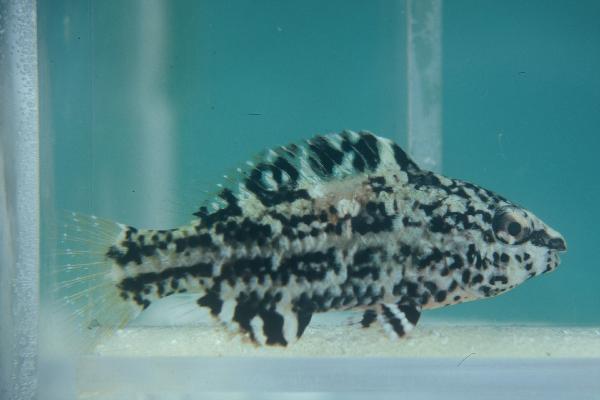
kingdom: Animalia
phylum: Chordata
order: Perciformes
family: Scaridae
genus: Scarus
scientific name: Scarus falcipinnis
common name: Greenbelly parrotfish
